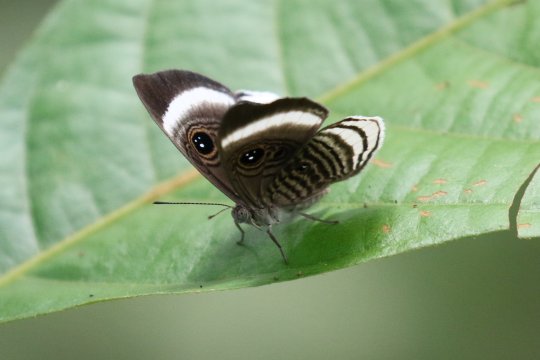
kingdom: Animalia
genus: Mesosemia
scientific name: Mesosemia modulata
